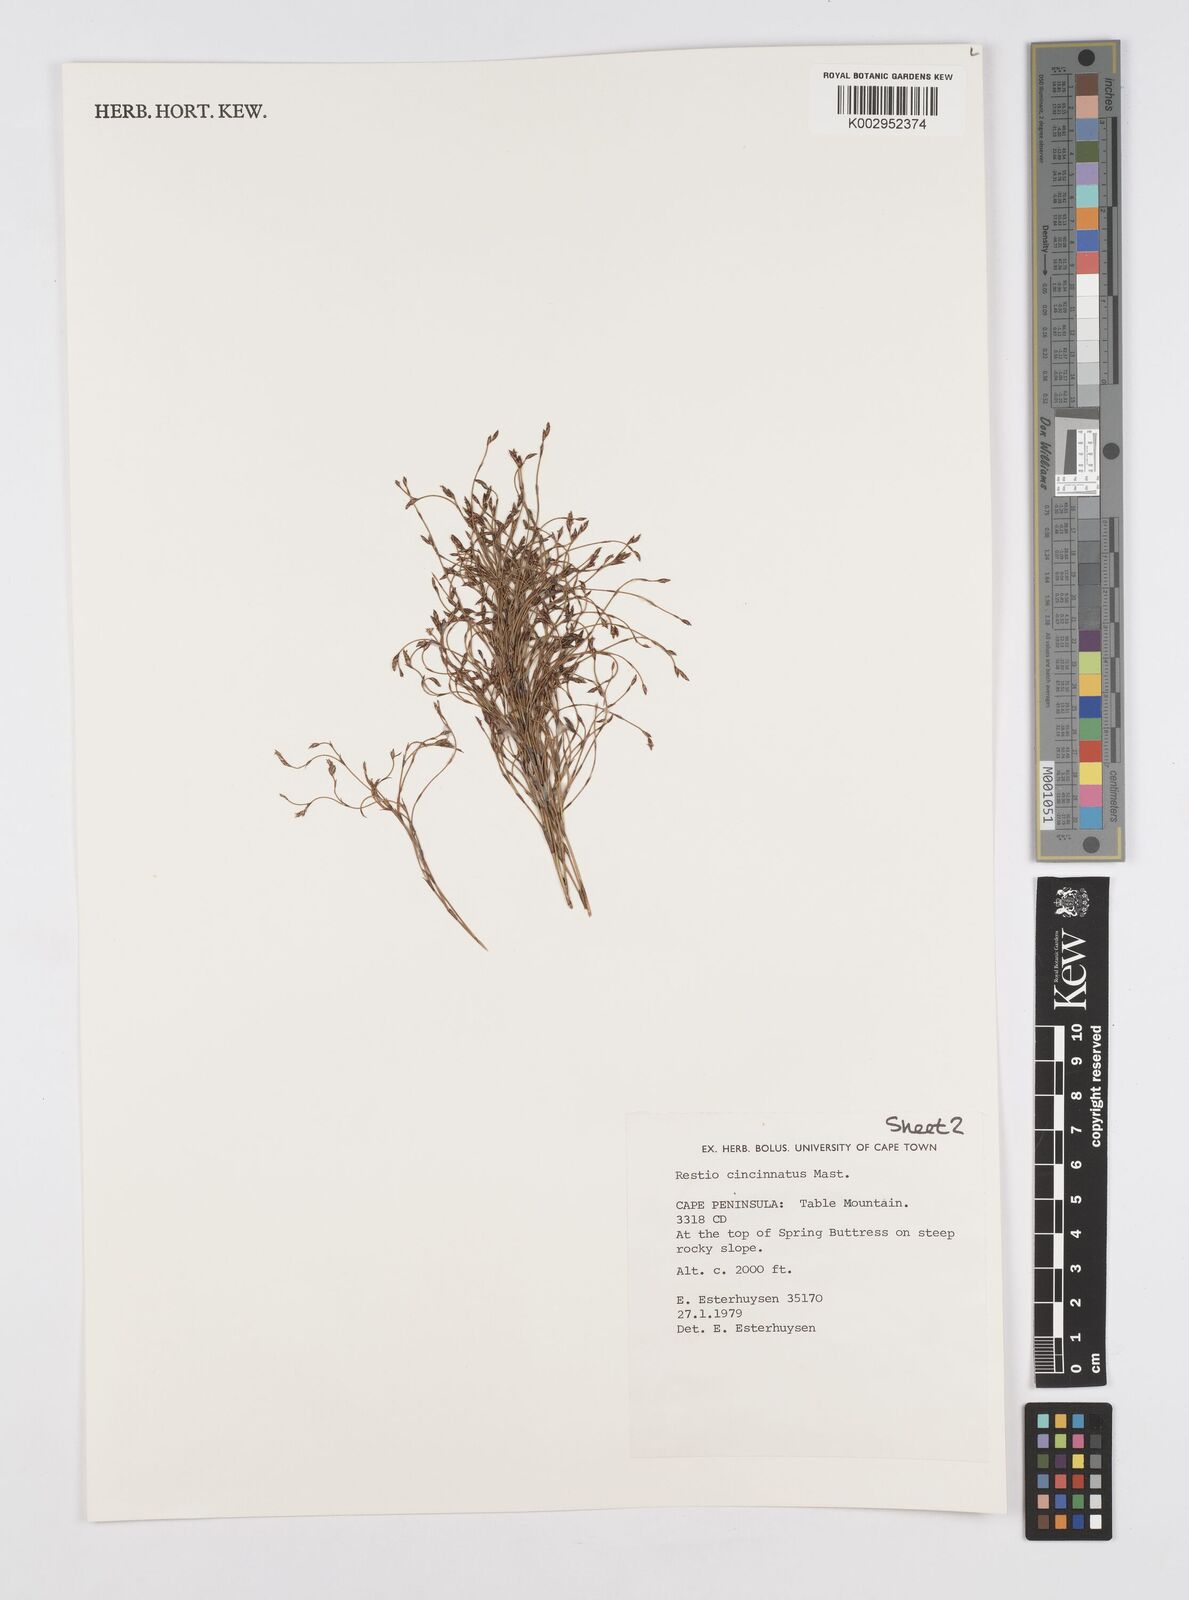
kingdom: Plantae
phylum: Tracheophyta
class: Liliopsida
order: Poales
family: Restionaceae
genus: Restio
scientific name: Restio cincinnatus
